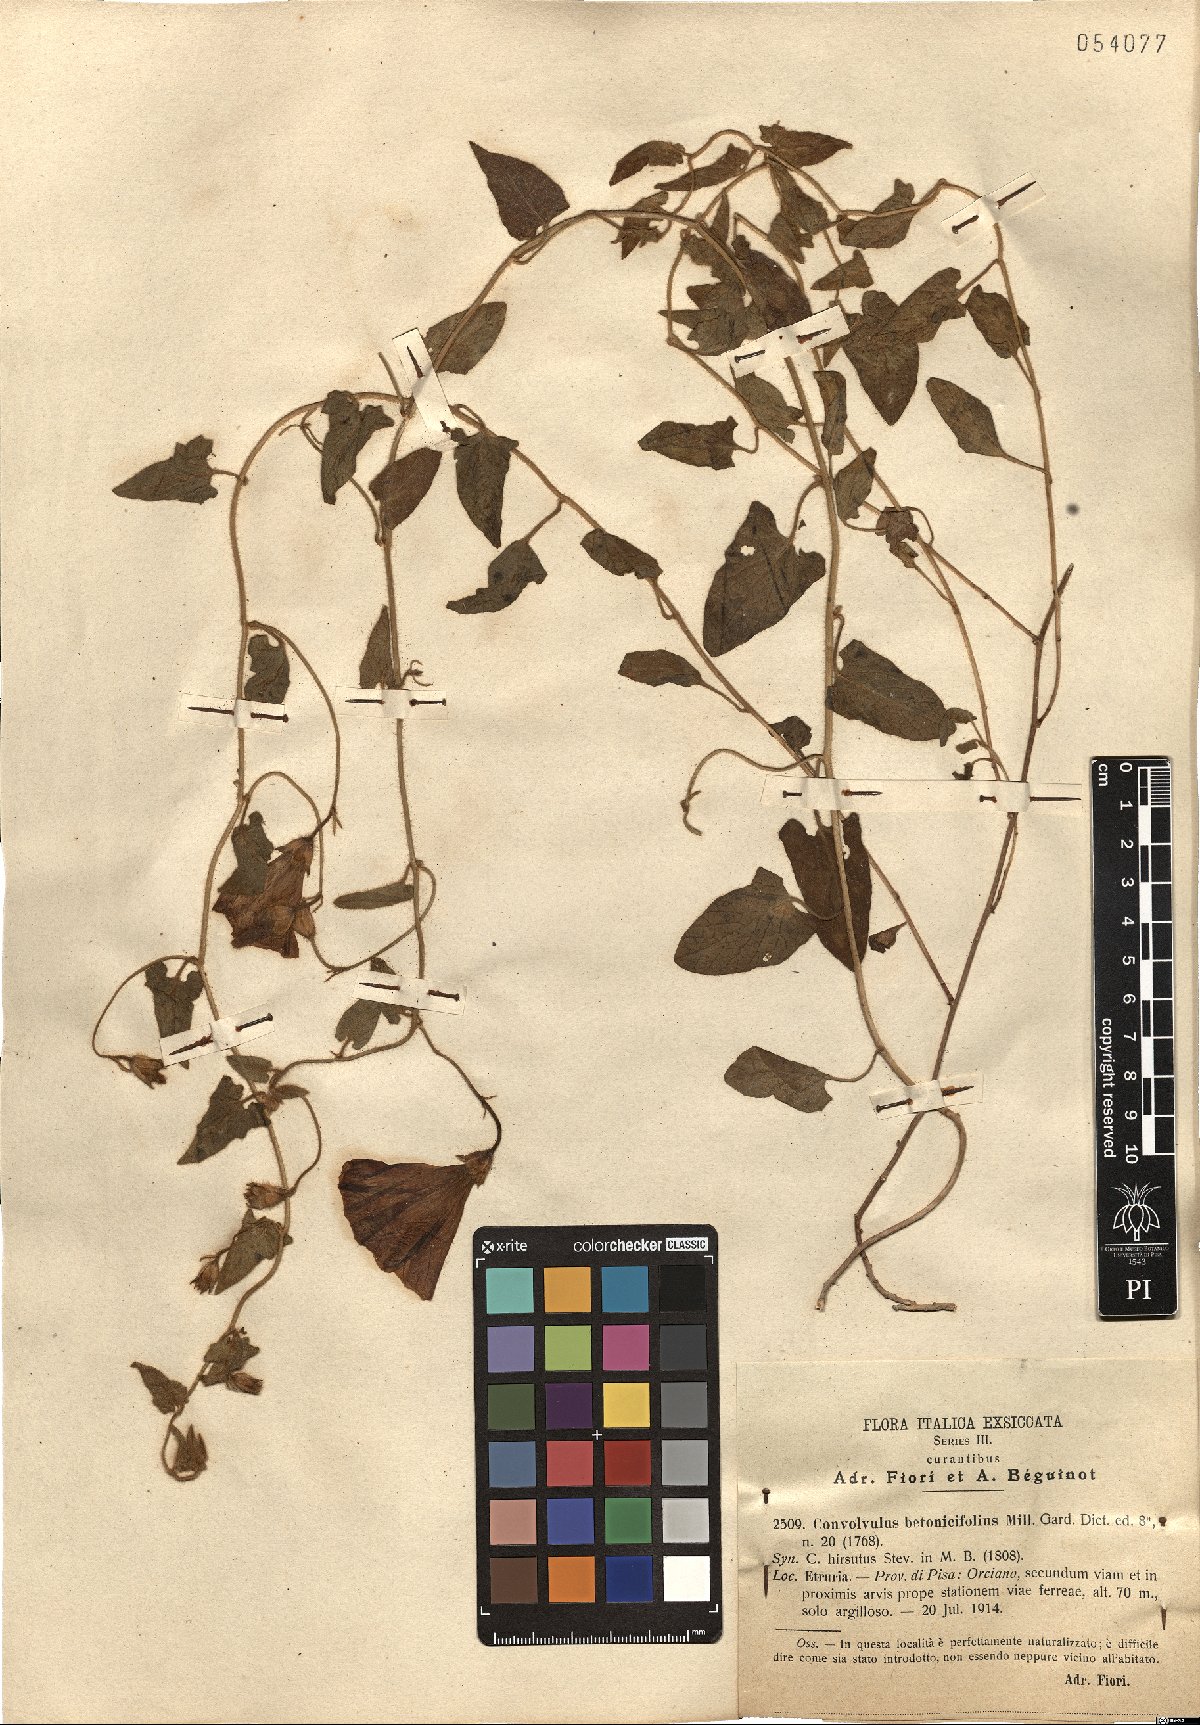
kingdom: Plantae
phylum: Tracheophyta
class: Magnoliopsida
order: Solanales
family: Convolvulaceae
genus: Convolvulus
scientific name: Convolvulus betonicifolius
